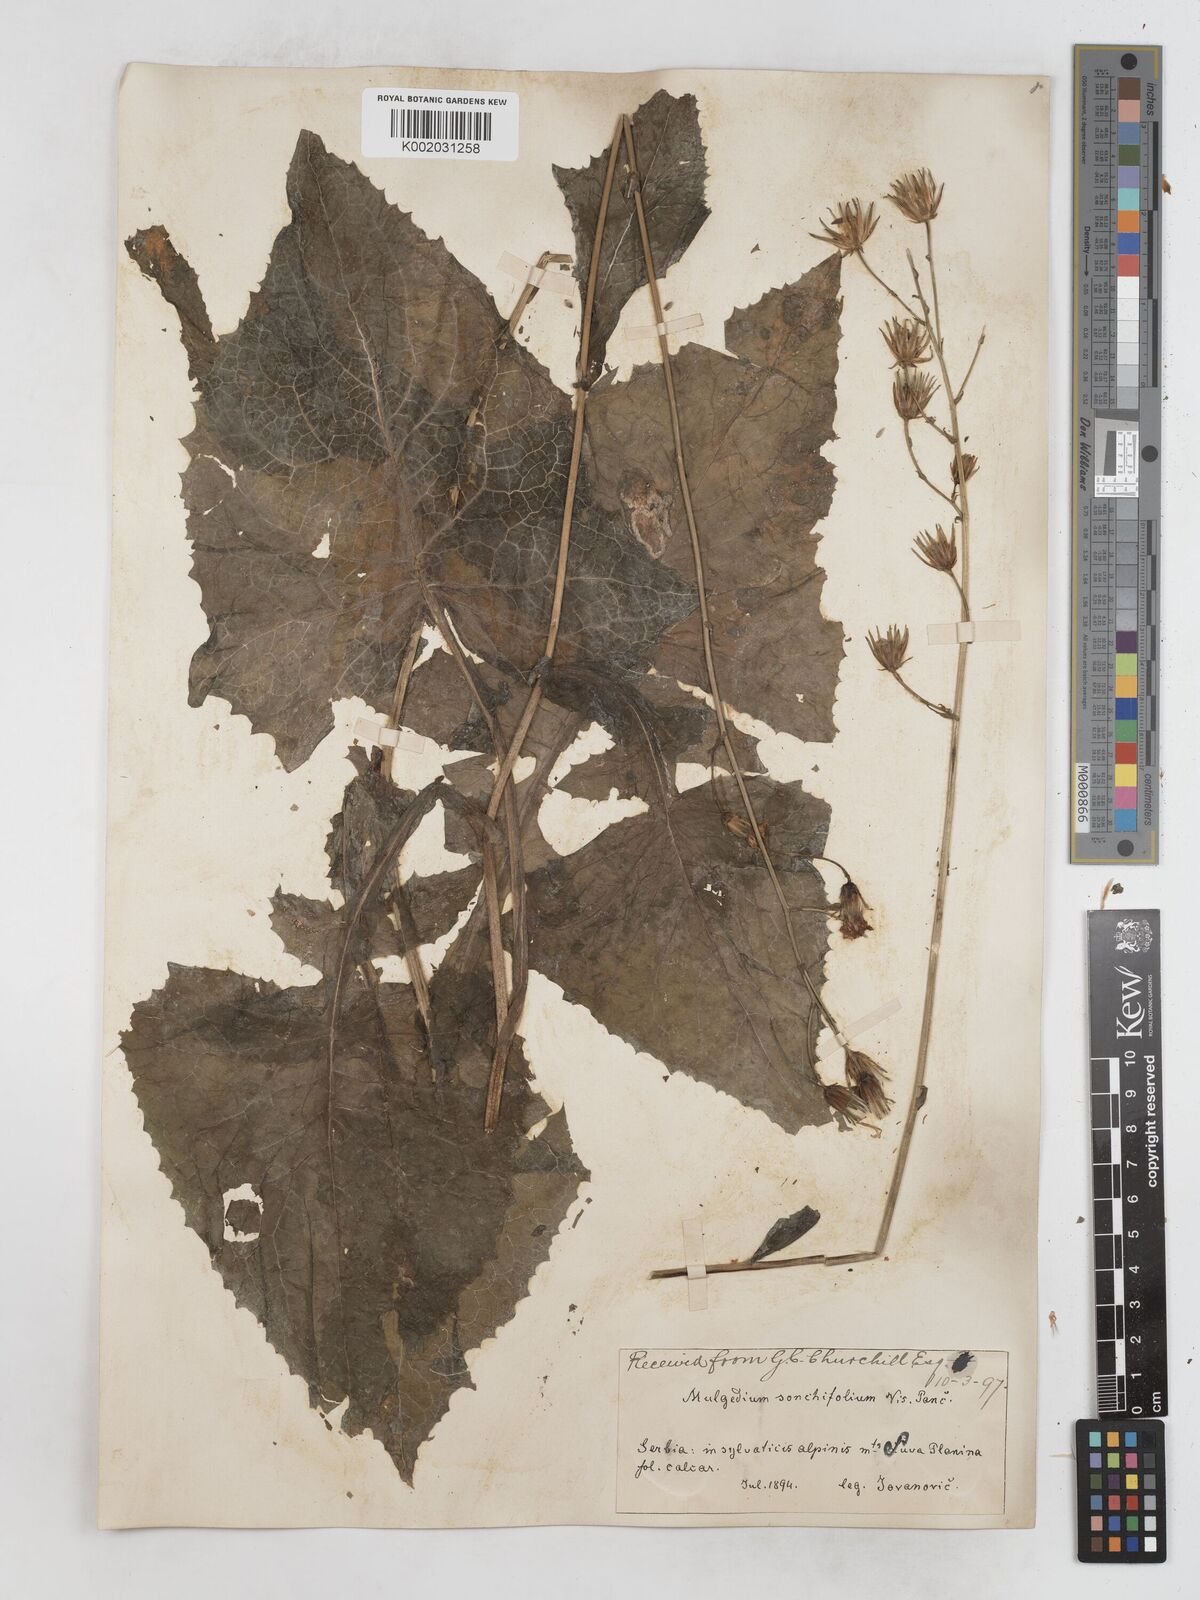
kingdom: Plantae
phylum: Tracheophyta
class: Magnoliopsida
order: Asterales
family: Asteraceae
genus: Lactuca
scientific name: Lactuca sonchifolia
